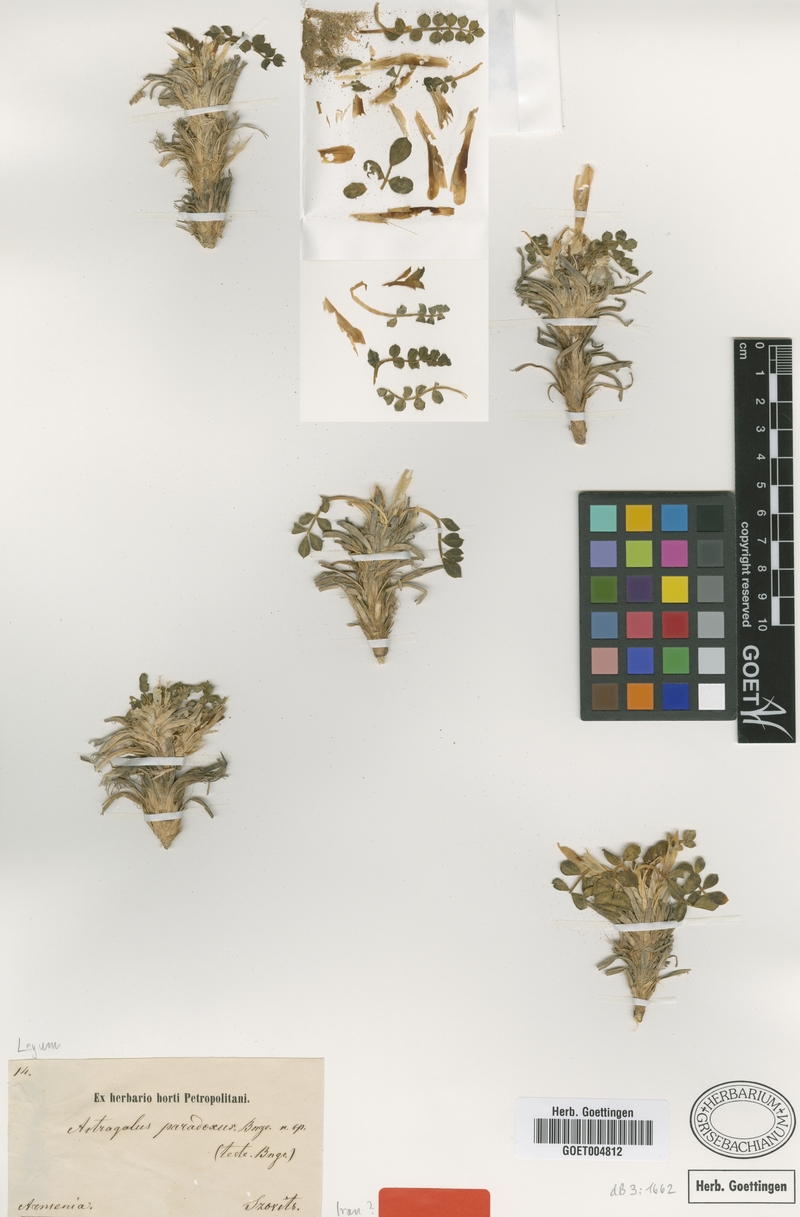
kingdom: Plantae
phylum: Tracheophyta
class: Magnoliopsida
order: Fabales
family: Fabaceae
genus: Astragalus
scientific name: Astragalus paradoxus
